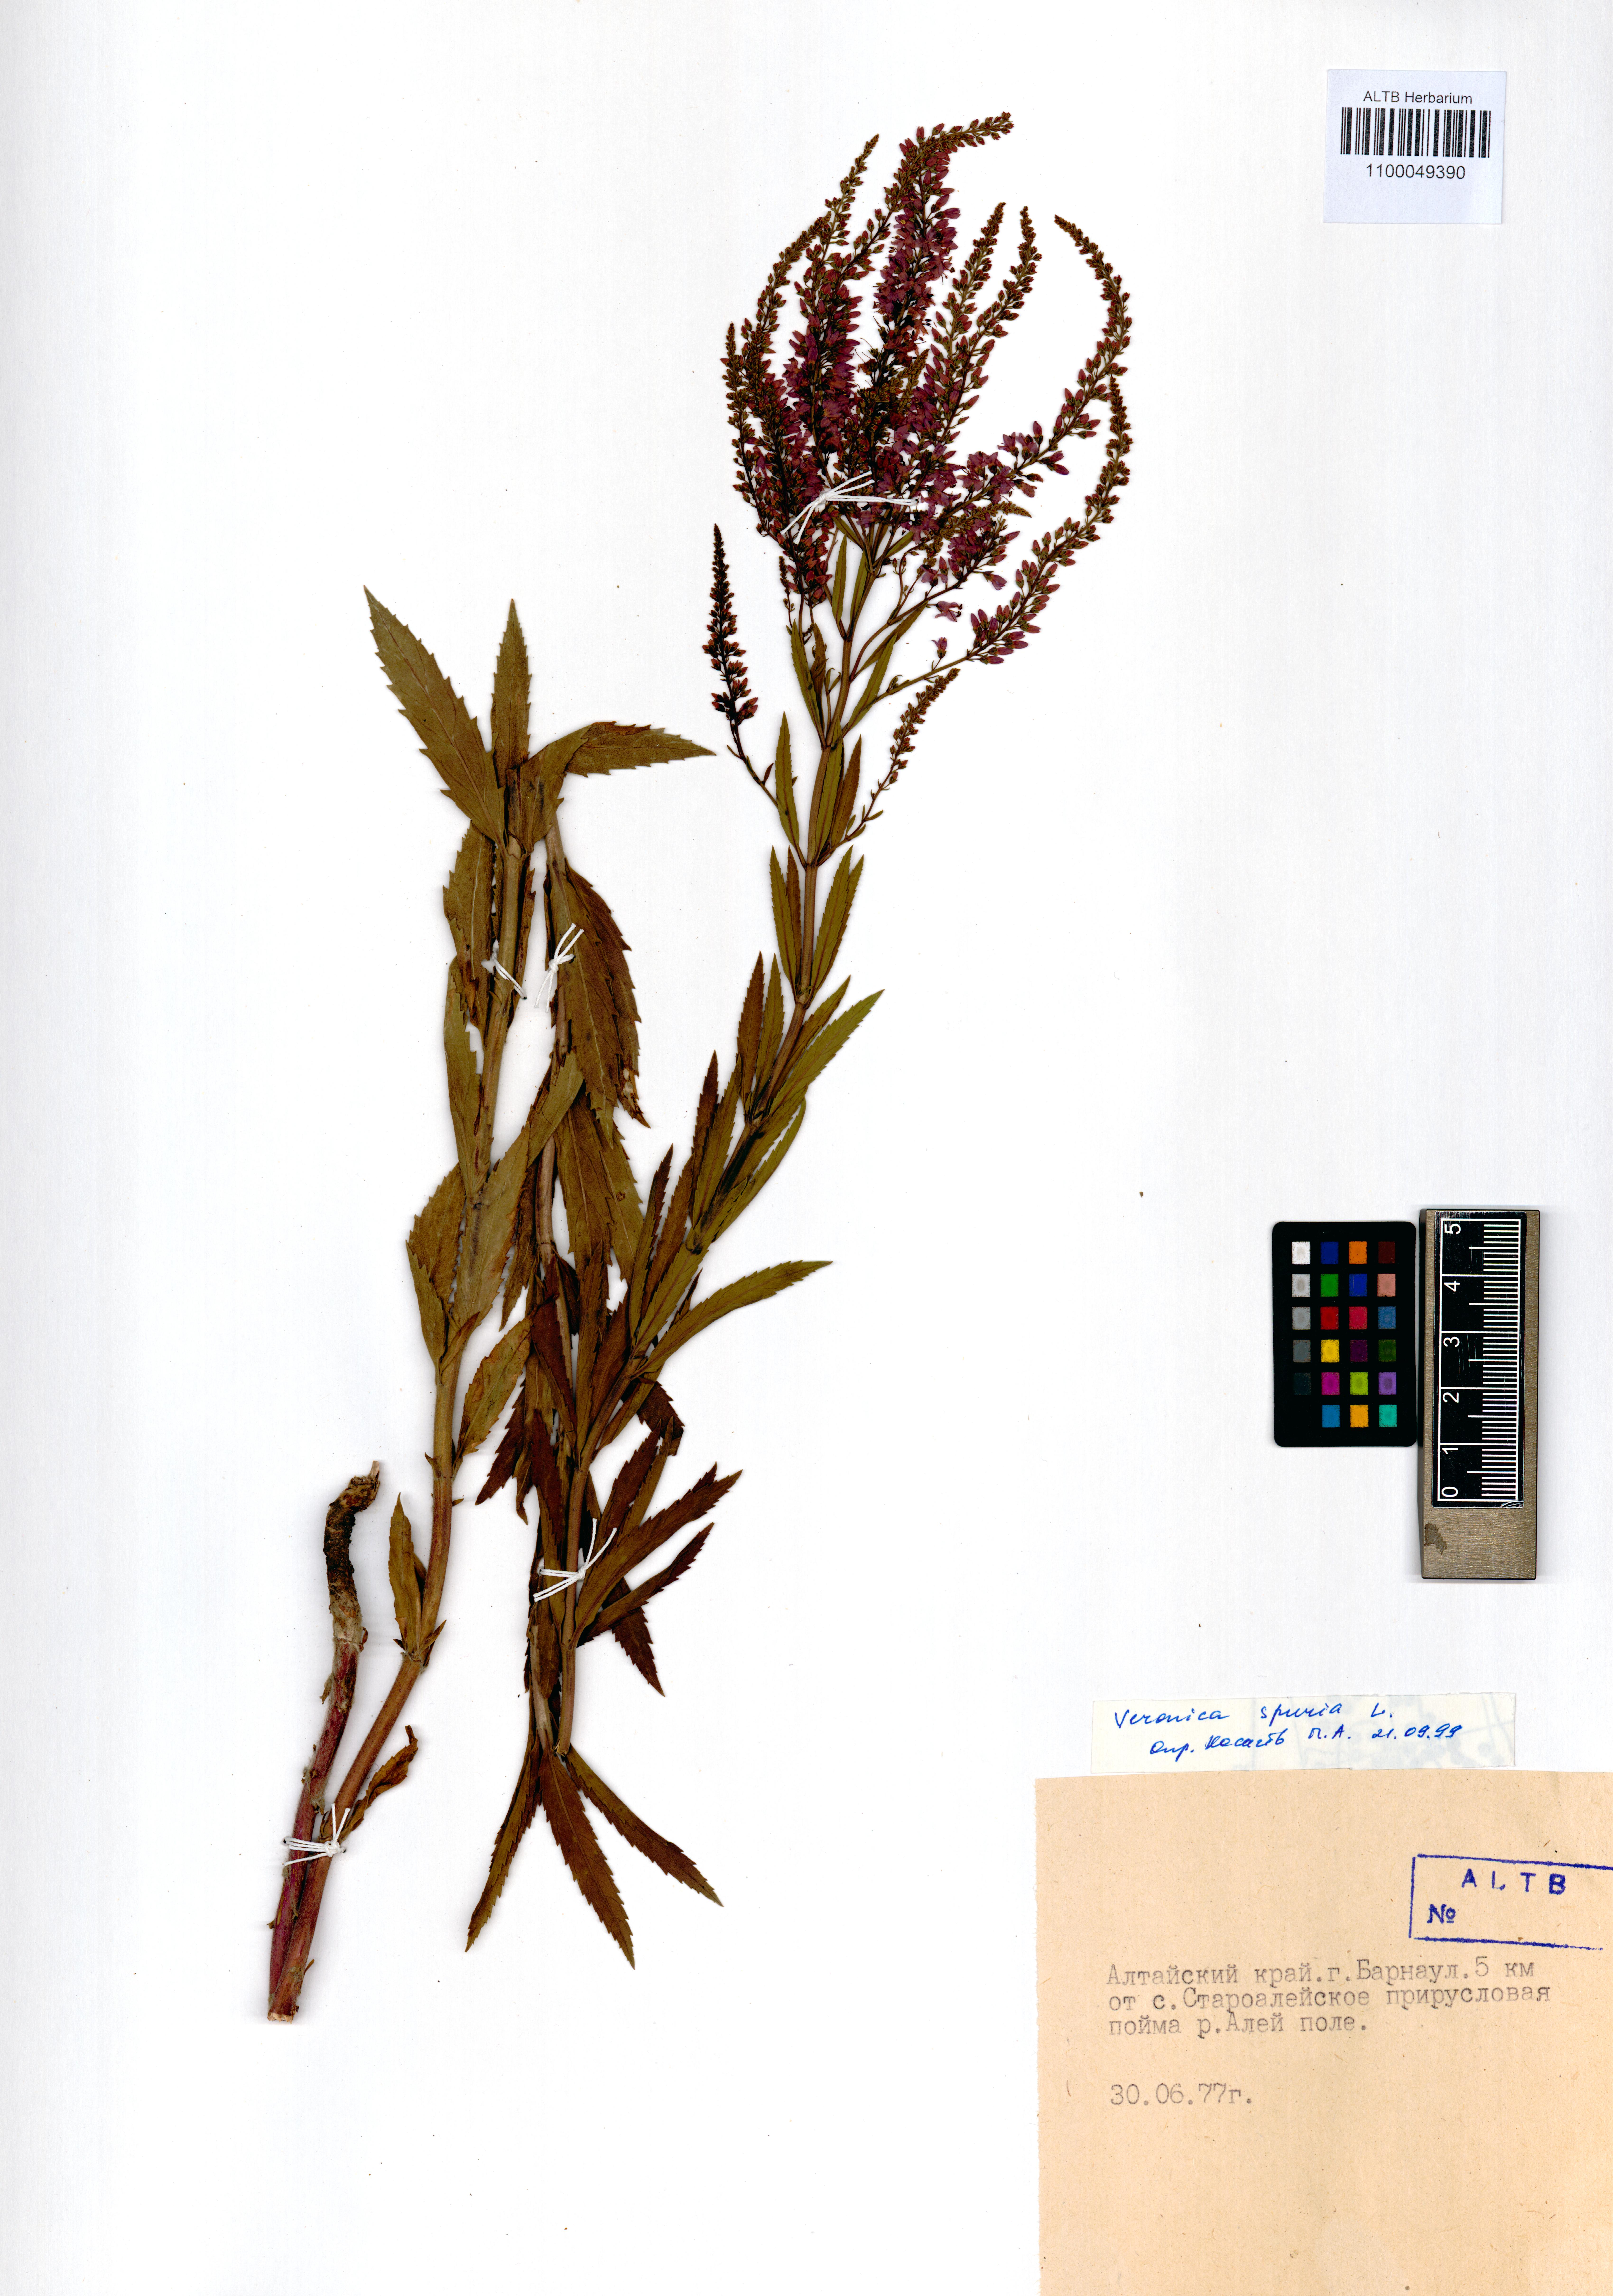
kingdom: Plantae
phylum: Tracheophyta
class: Magnoliopsida
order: Lamiales
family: Plantaginaceae
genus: Veronica
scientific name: Veronica spuria
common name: Bastard speedwell
